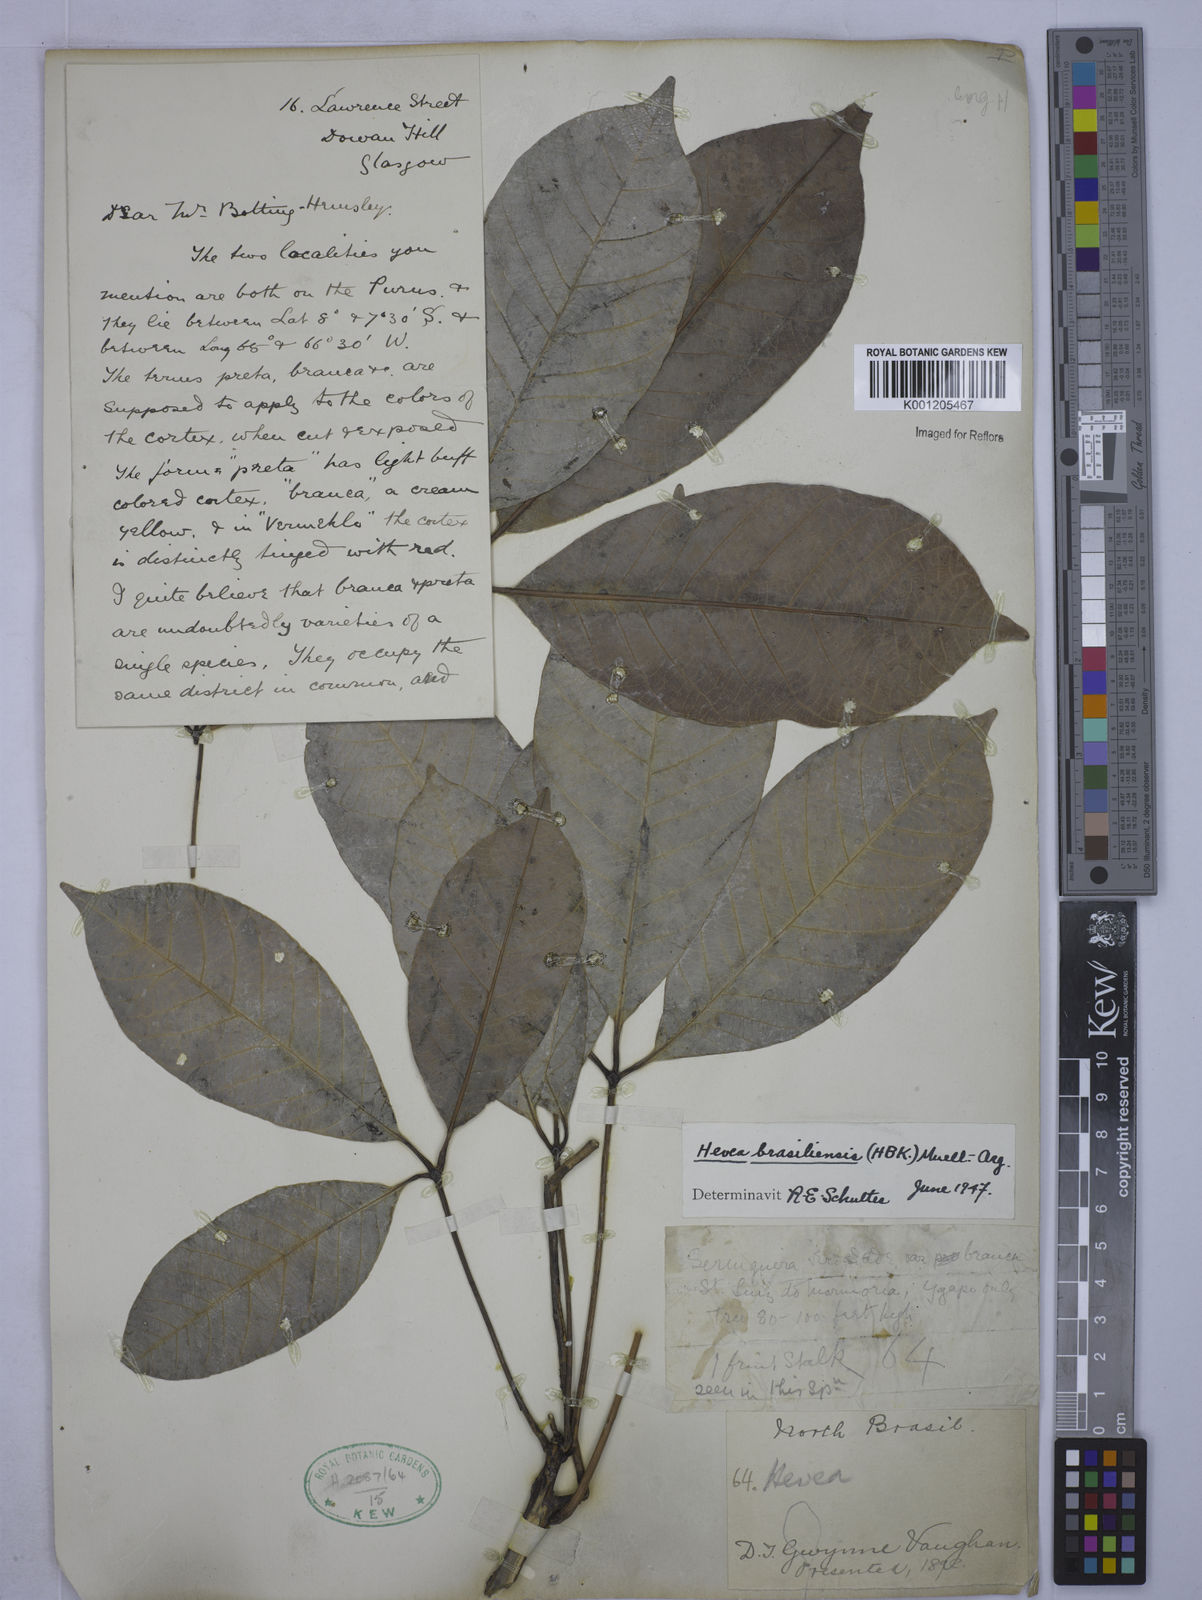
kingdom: Plantae
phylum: Tracheophyta
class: Magnoliopsida
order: Malpighiales
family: Euphorbiaceae
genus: Hevea
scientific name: Hevea
